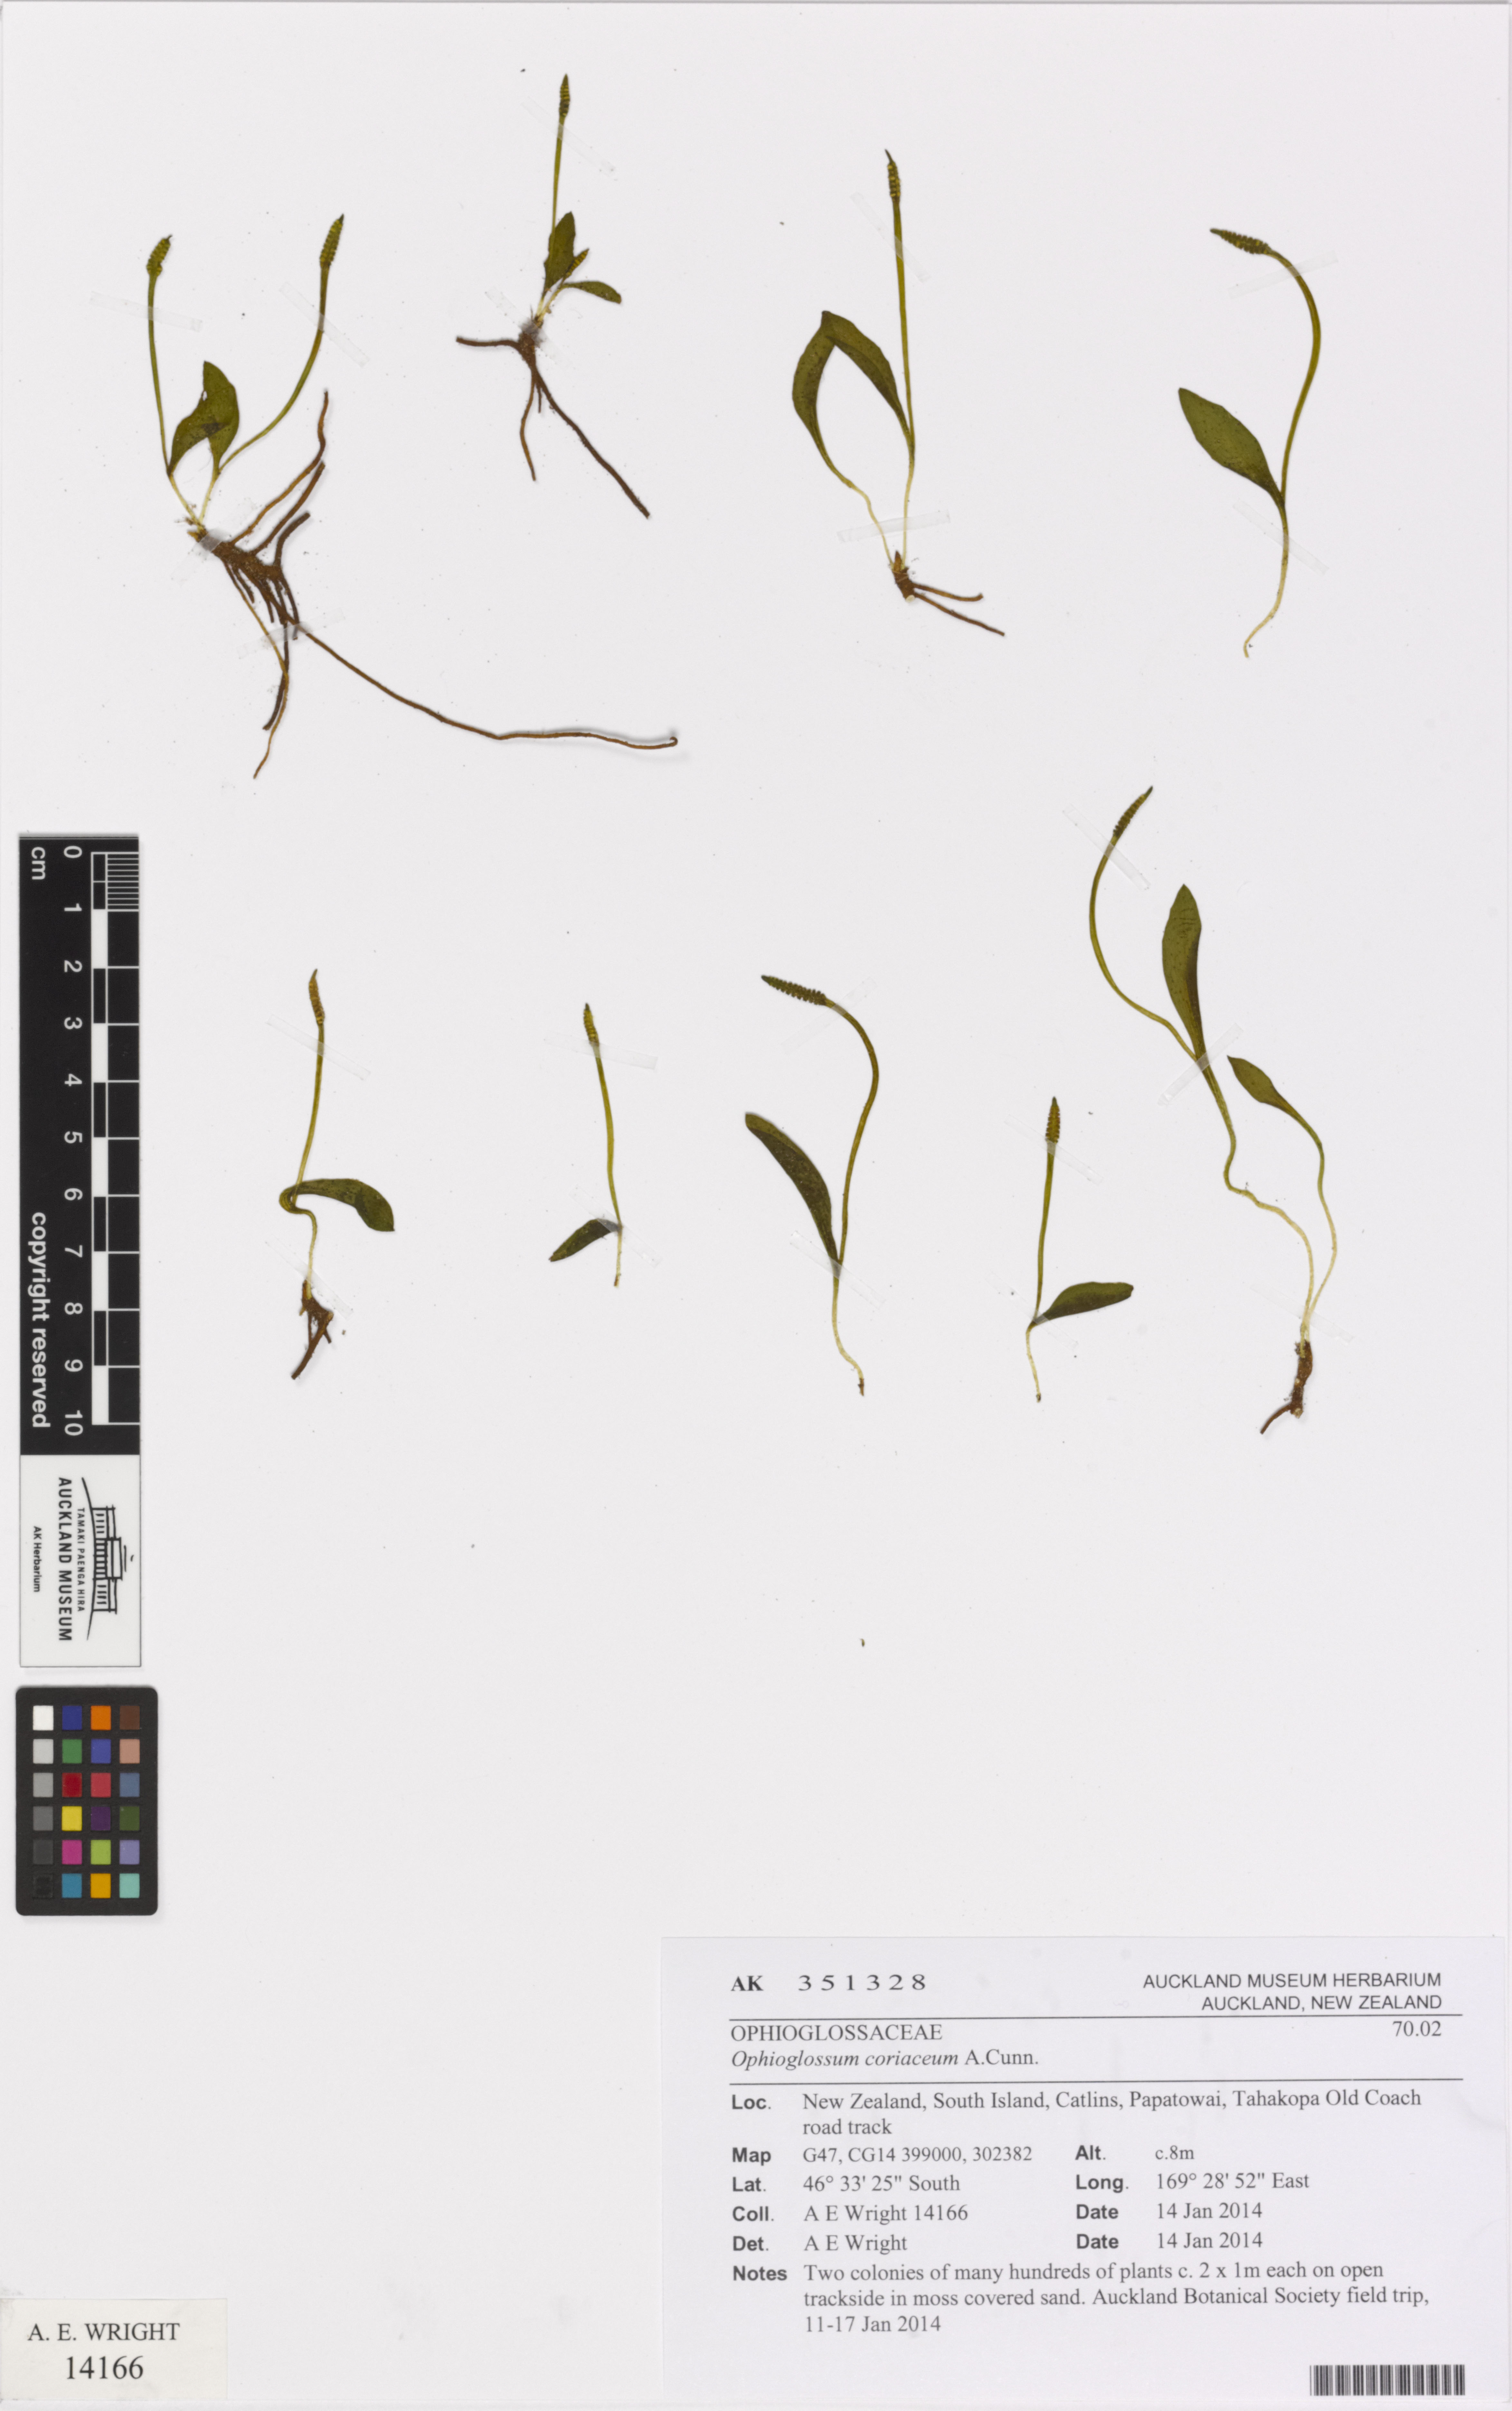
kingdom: Plantae
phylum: Tracheophyta
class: Polypodiopsida
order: Ophioglossales
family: Ophioglossaceae
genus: Ophioglossum
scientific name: Ophioglossum coriaceum
